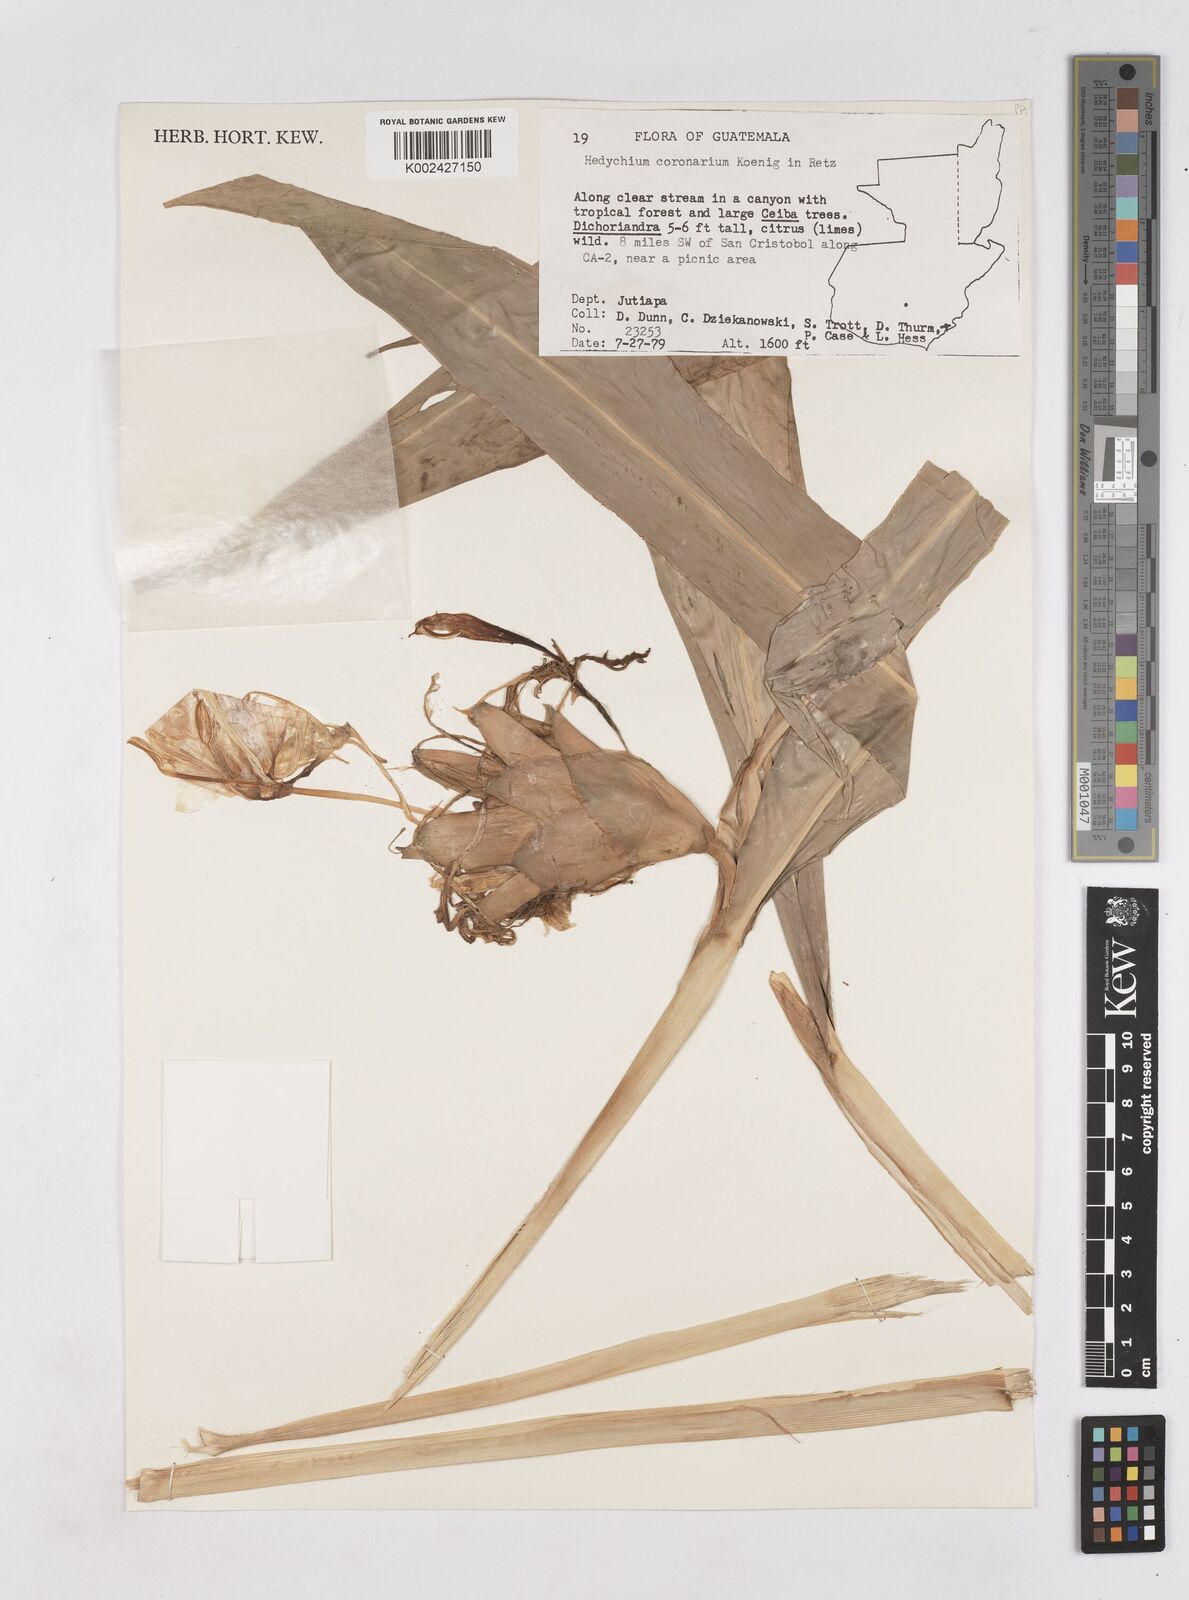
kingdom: Plantae
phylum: Tracheophyta
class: Liliopsida
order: Zingiberales
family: Zingiberaceae
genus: Hedychium
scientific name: Hedychium coronarium
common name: White garland-lily
